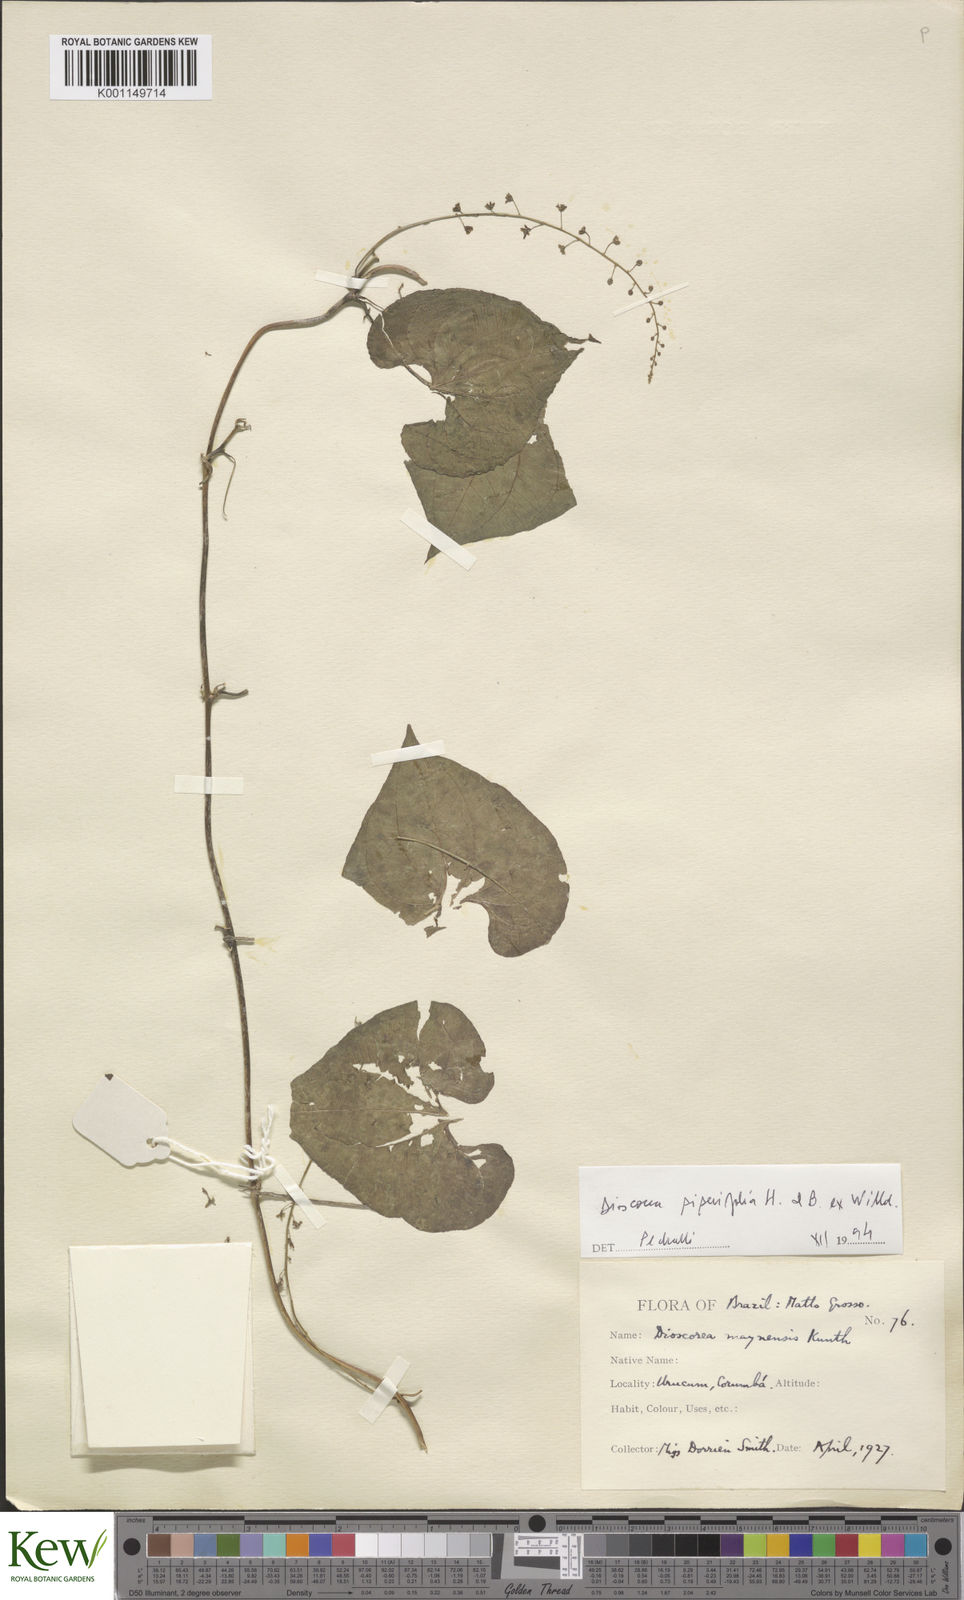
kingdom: Plantae
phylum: Tracheophyta
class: Liliopsida
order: Dioscoreales
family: Dioscoreaceae
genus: Dioscorea
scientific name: Dioscorea piperifolia
